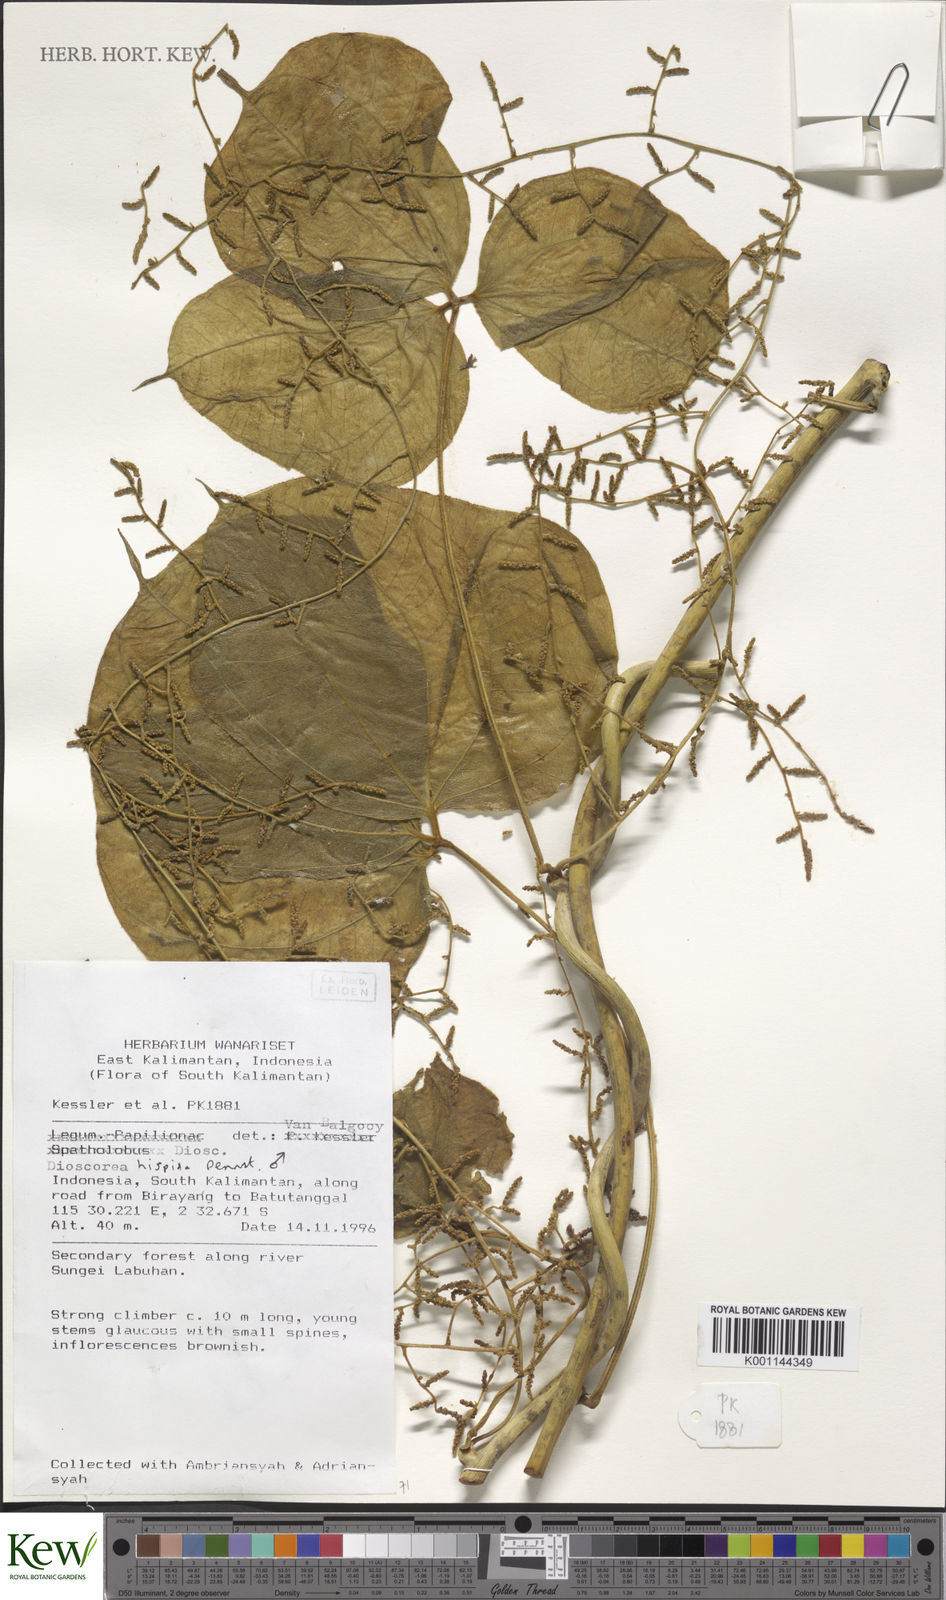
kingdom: Plantae
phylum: Tracheophyta
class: Liliopsida
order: Dioscoreales
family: Dioscoreaceae
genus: Dioscorea
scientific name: Dioscorea hispida
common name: Asiatic bitter yam
